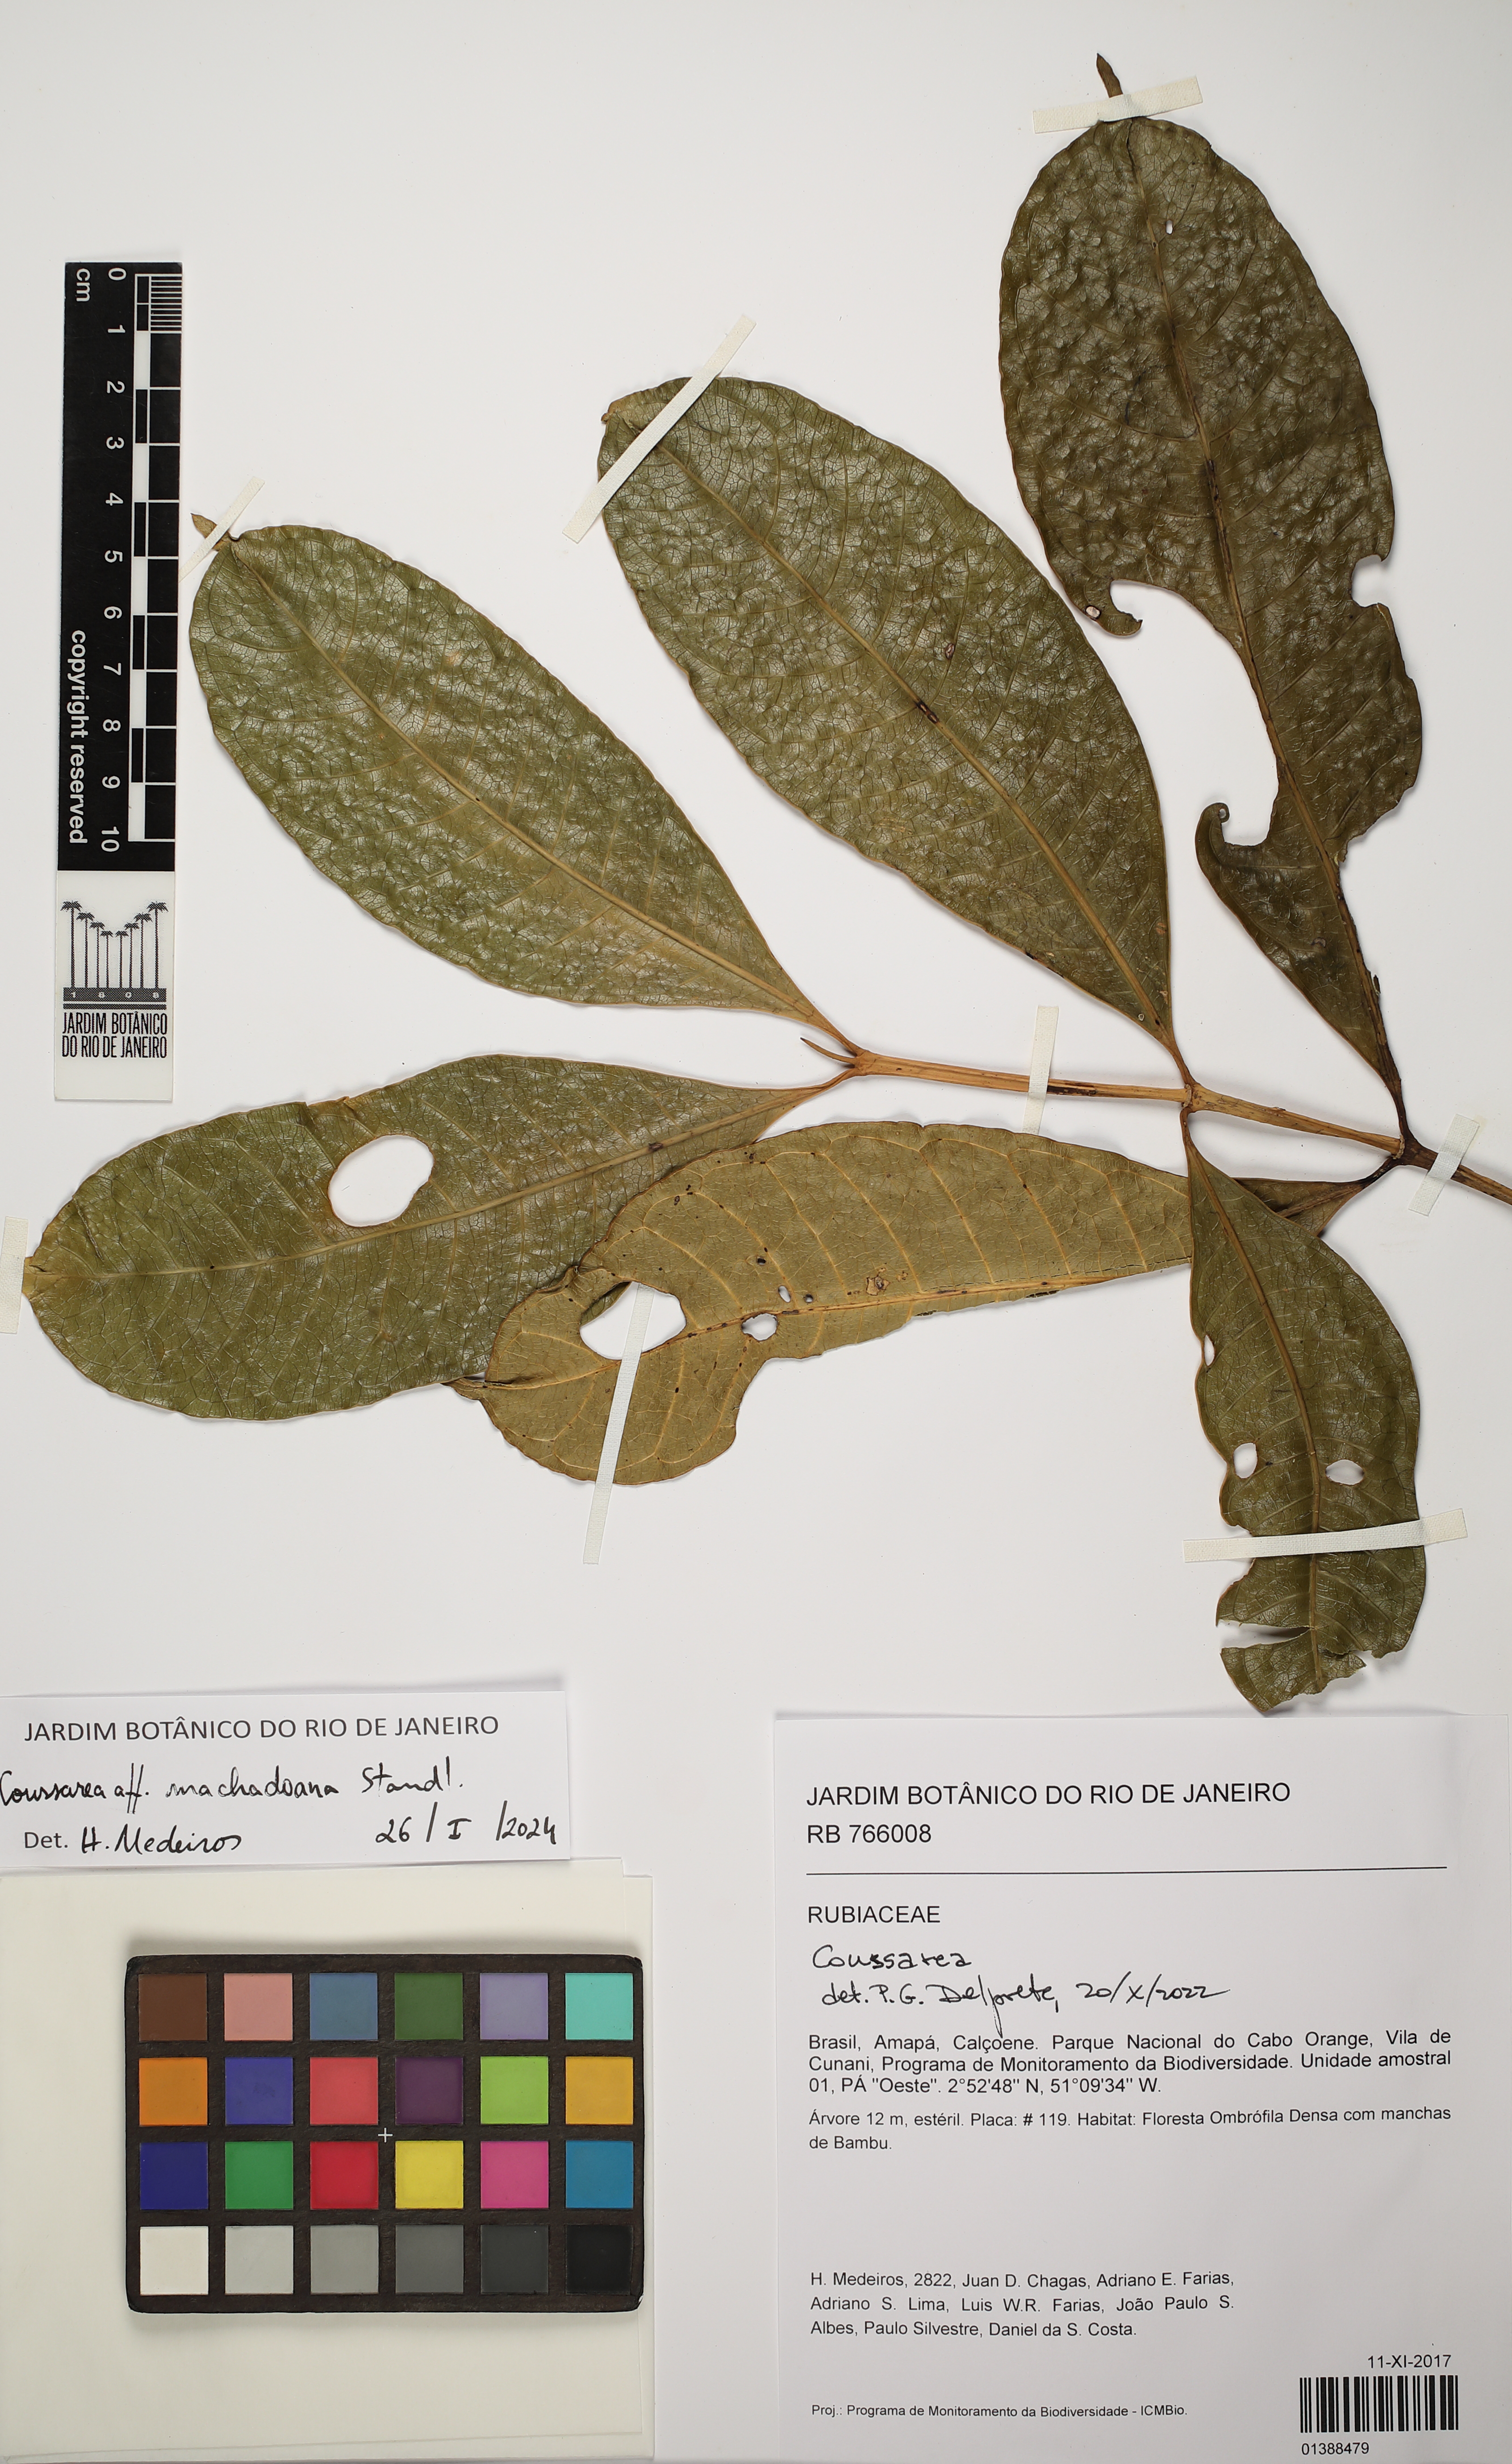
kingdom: Plantae
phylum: Tracheophyta
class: Magnoliopsida
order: Gentianales
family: Rubiaceae
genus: Coussarea
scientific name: Coussarea machadoana
